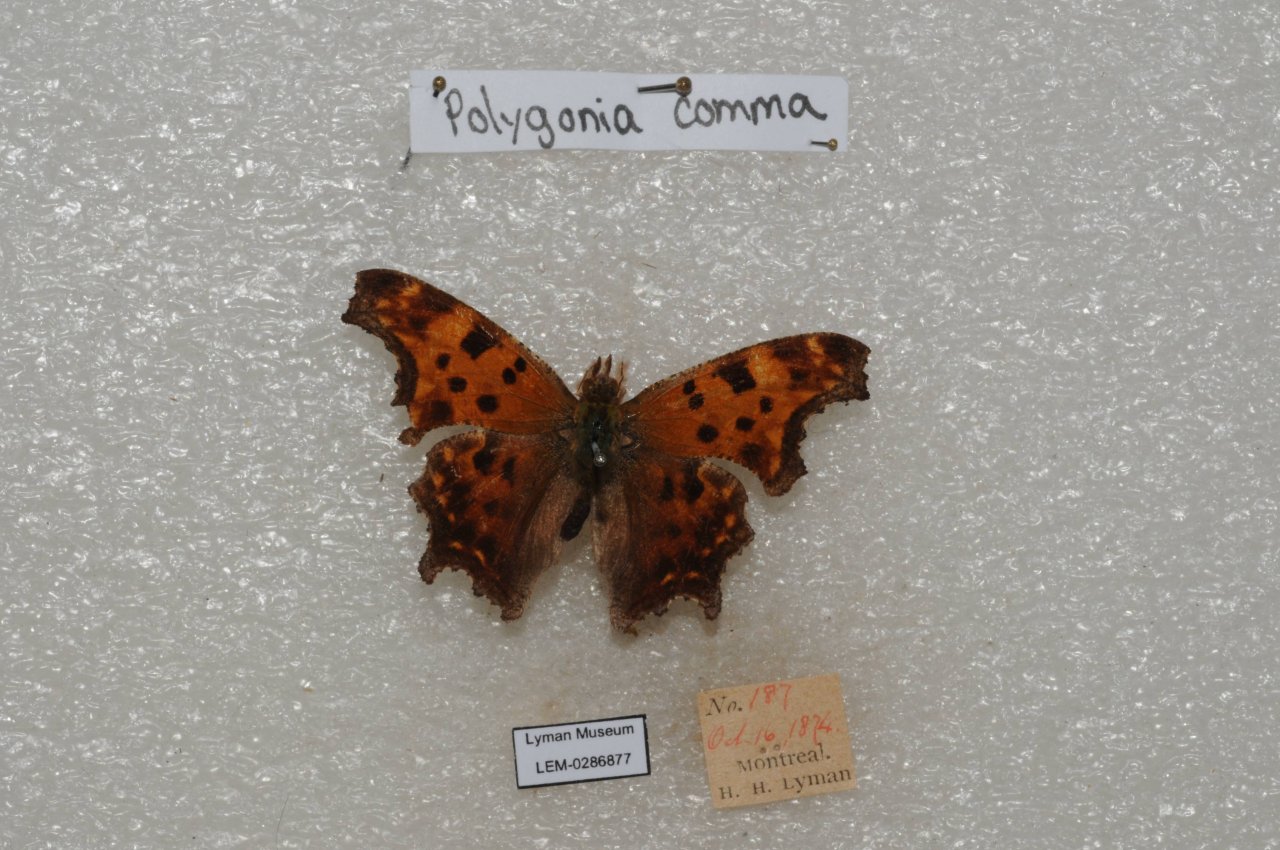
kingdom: Animalia
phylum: Arthropoda
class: Insecta
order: Lepidoptera
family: Nymphalidae
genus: Polygonia
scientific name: Polygonia comma
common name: Eastern Comma
